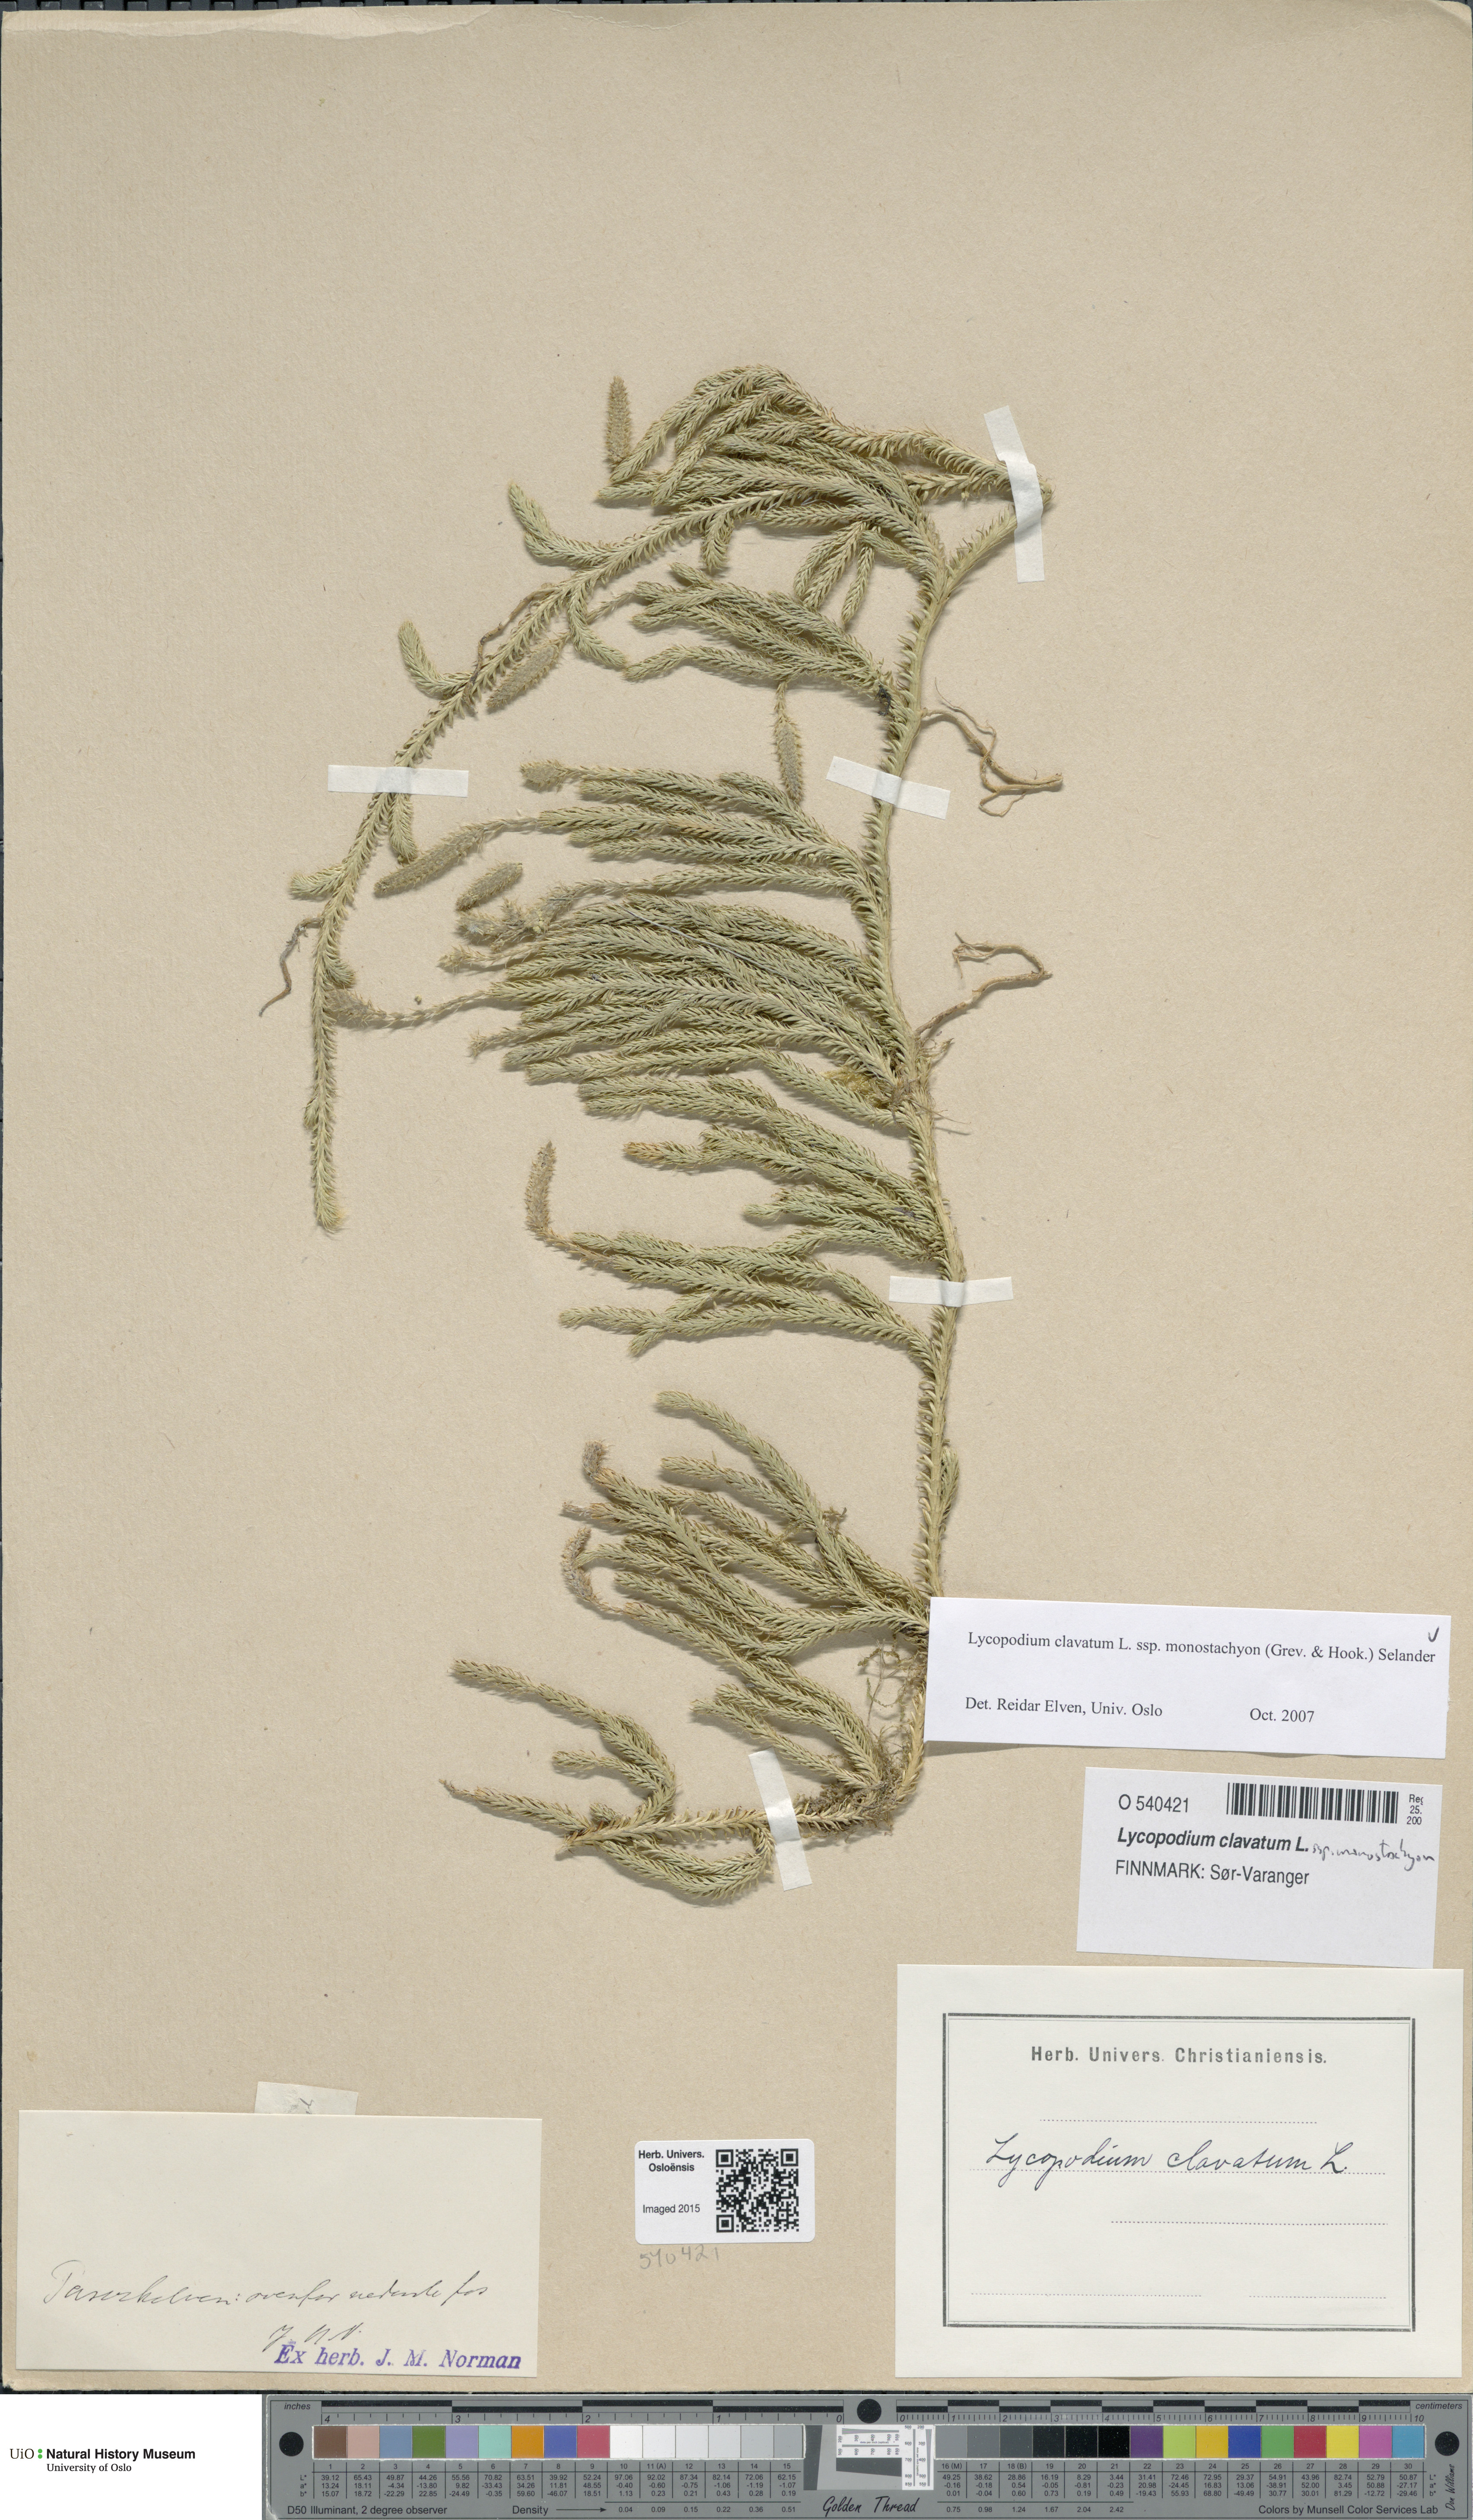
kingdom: Plantae
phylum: Tracheophyta
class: Lycopodiopsida
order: Lycopodiales
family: Lycopodiaceae
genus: Lycopodium
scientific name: Lycopodium lagopus
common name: One-cone clubmoss
